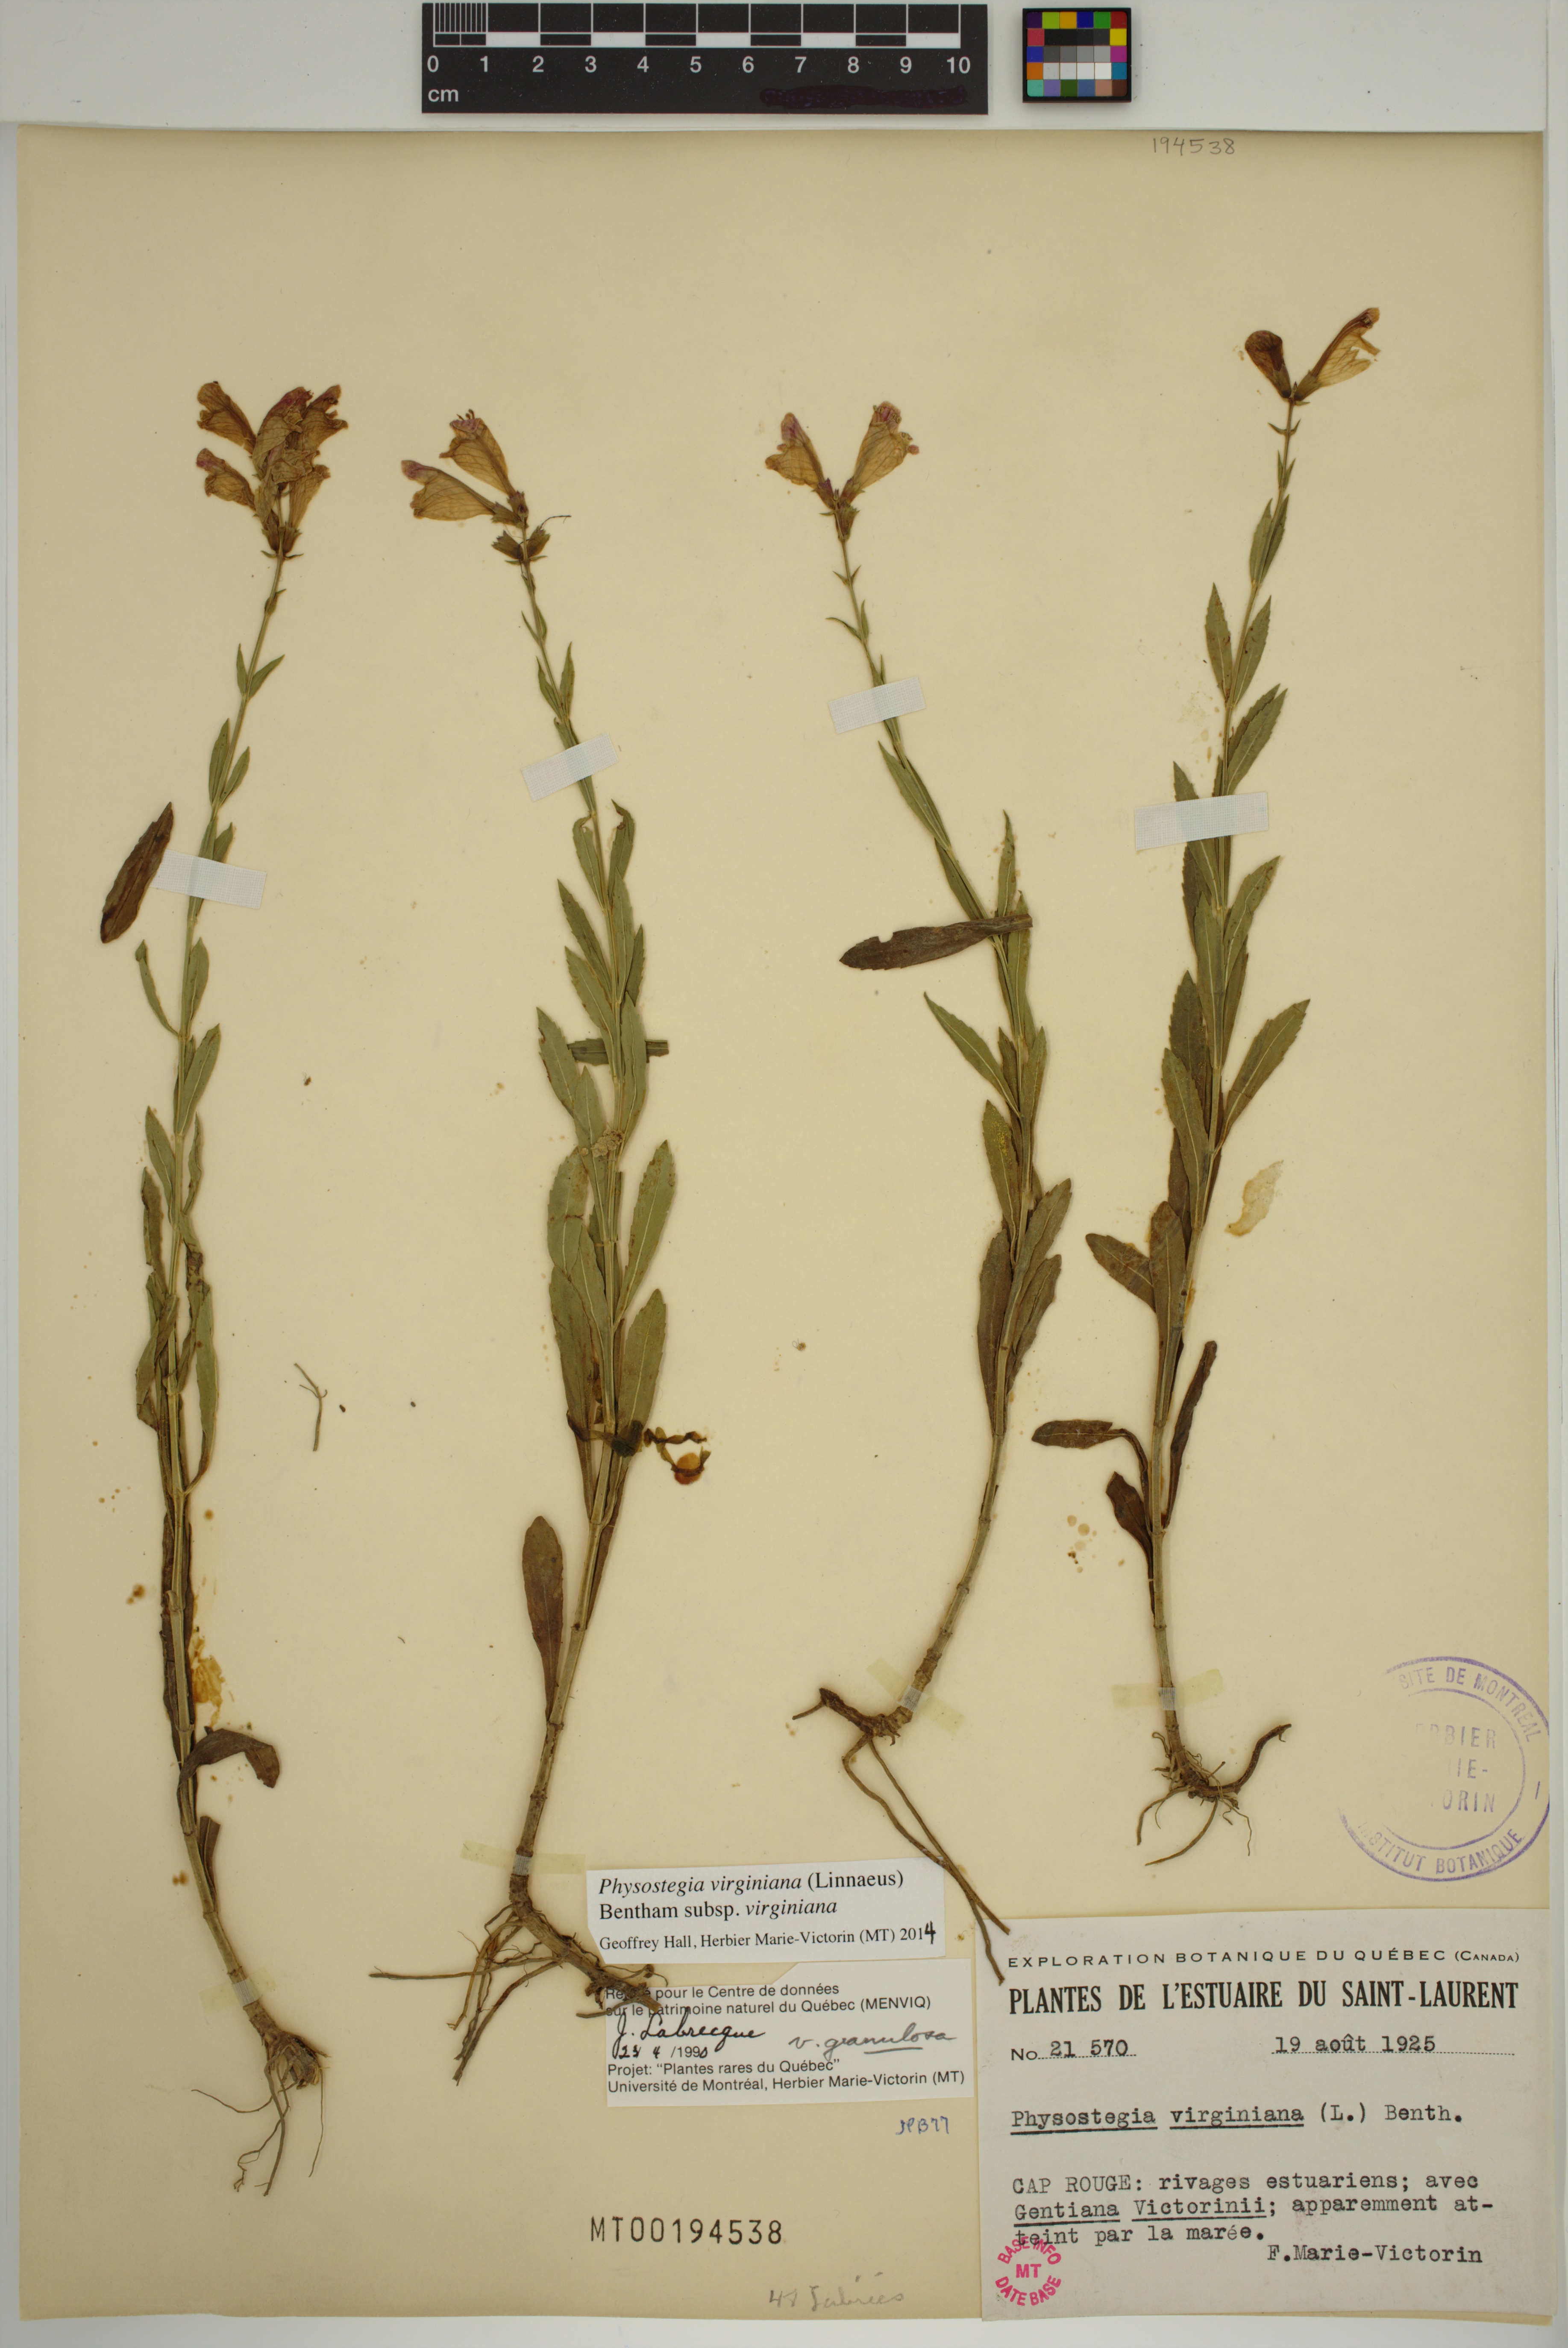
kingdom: Plantae
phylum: Tracheophyta
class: Magnoliopsida
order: Lamiales
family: Lamiaceae
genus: Physostegia
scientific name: Physostegia virginiana
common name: Obedient-plant
